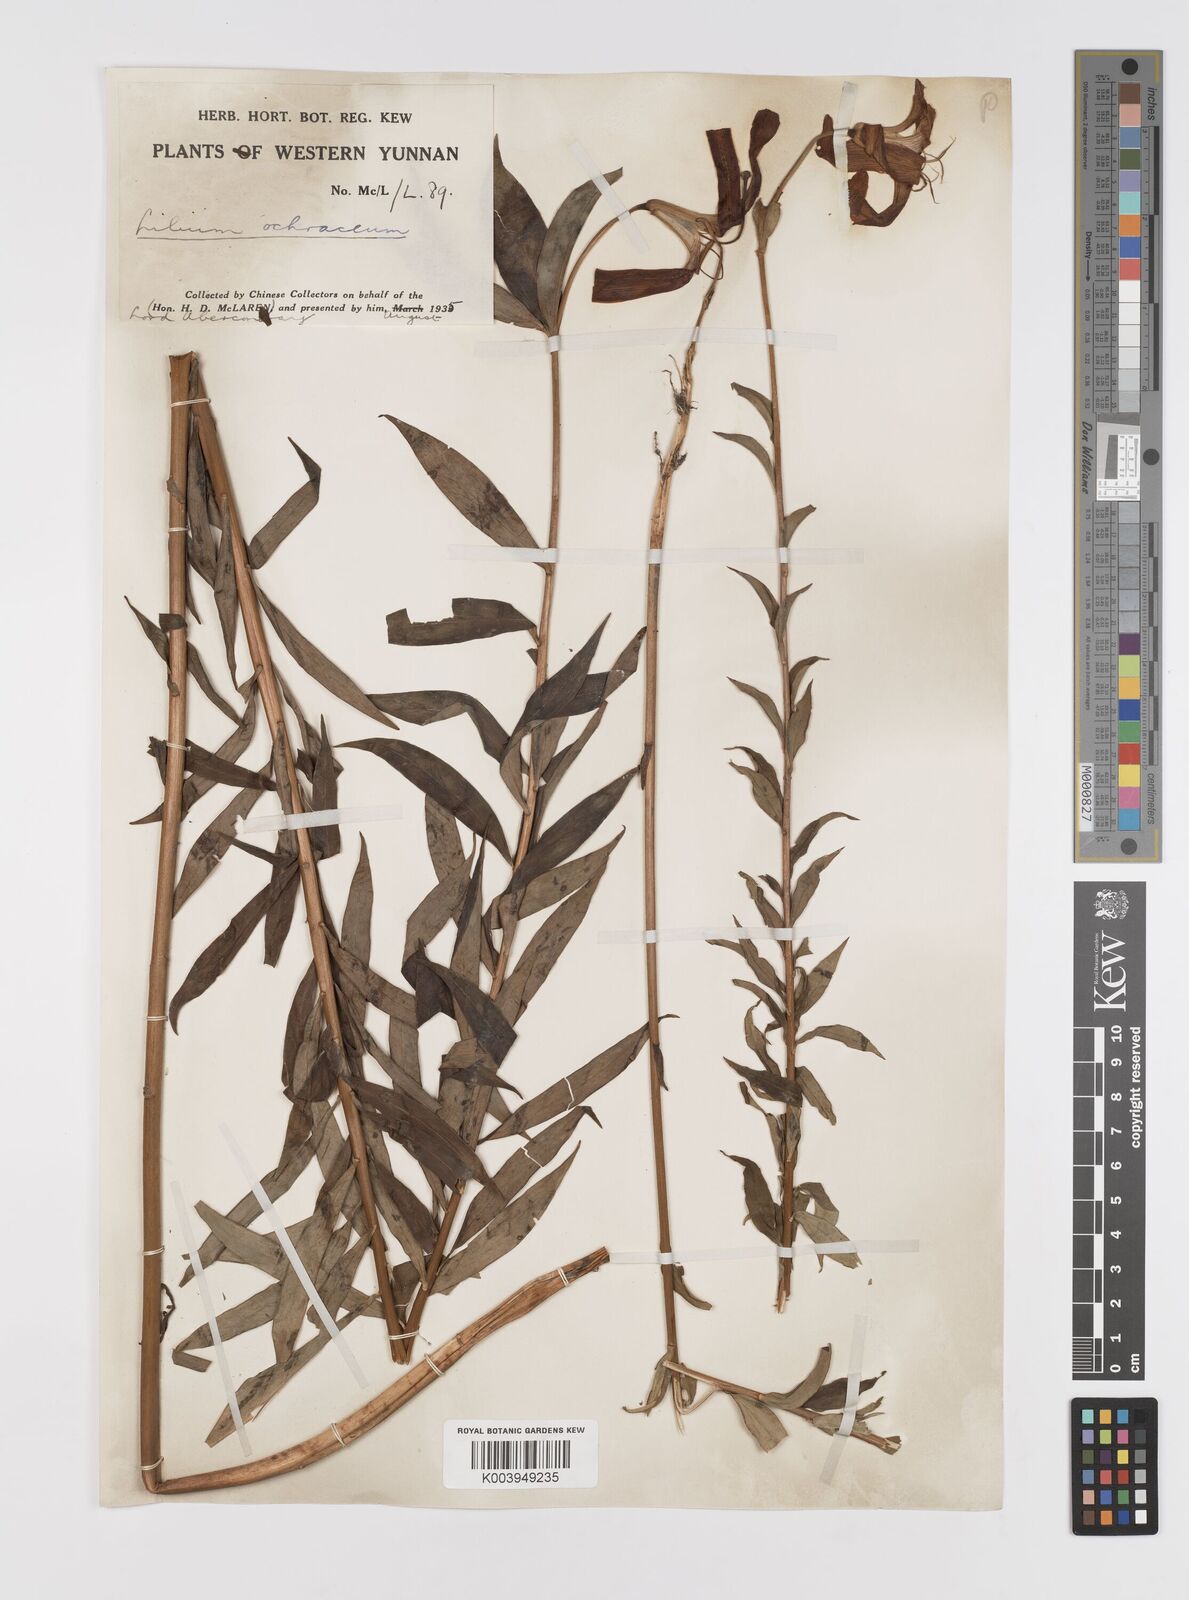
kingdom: Plantae
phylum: Tracheophyta
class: Liliopsida
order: Liliales
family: Liliaceae
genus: Lilium
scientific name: Lilium primulinum
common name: Ochre lily
